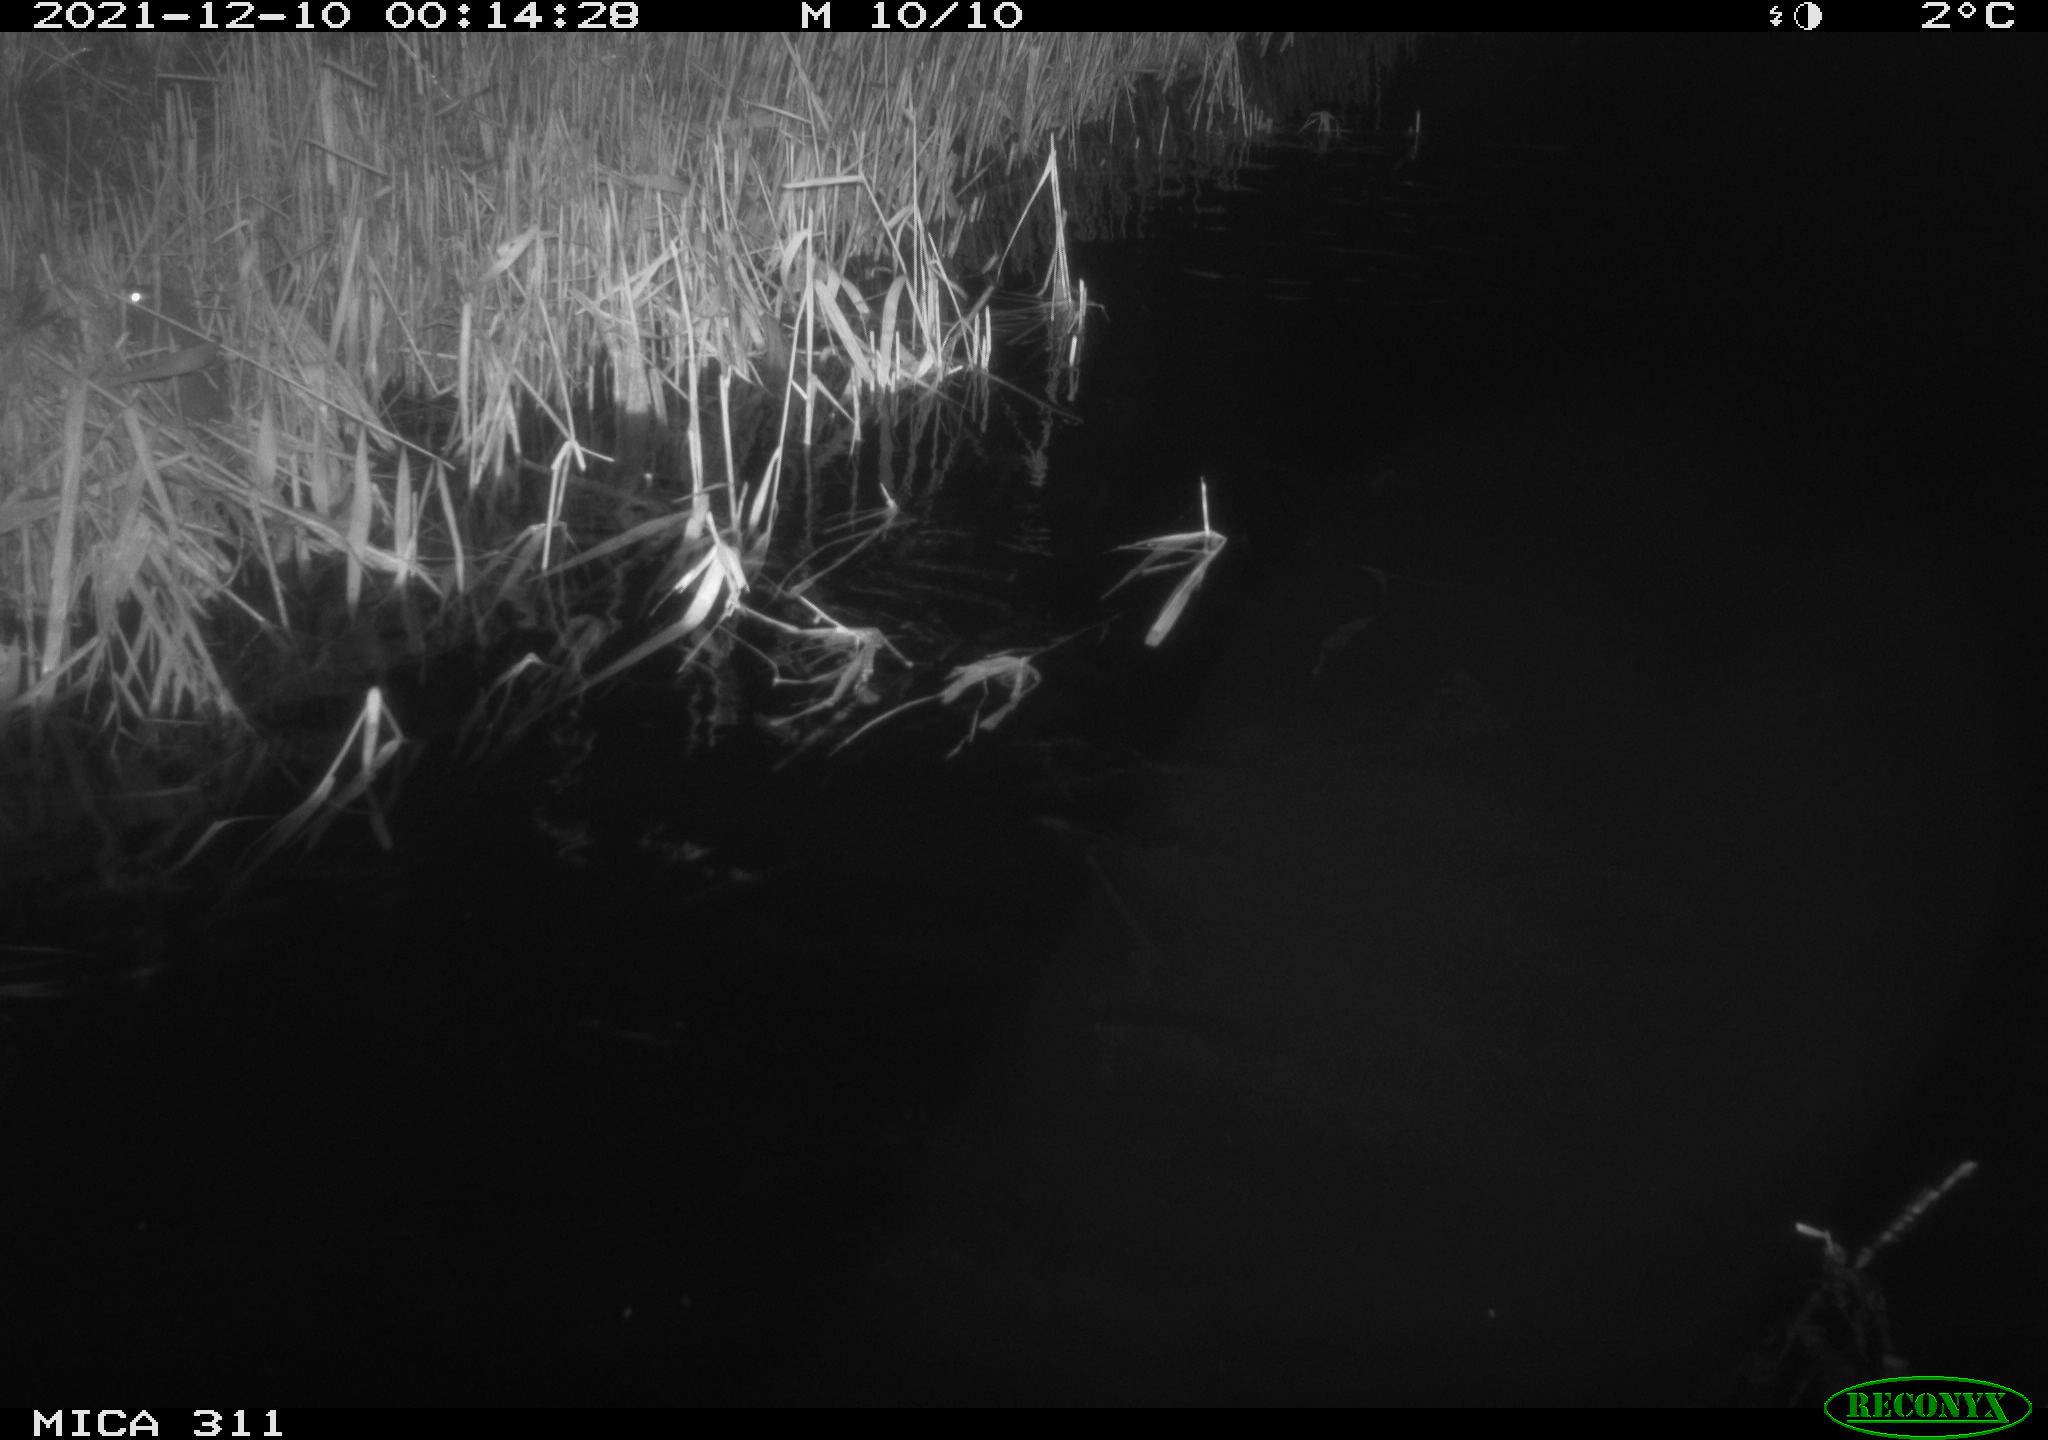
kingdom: Animalia
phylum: Chordata
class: Mammalia
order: Rodentia
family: Muridae
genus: Rattus
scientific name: Rattus norvegicus
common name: Brown rat
